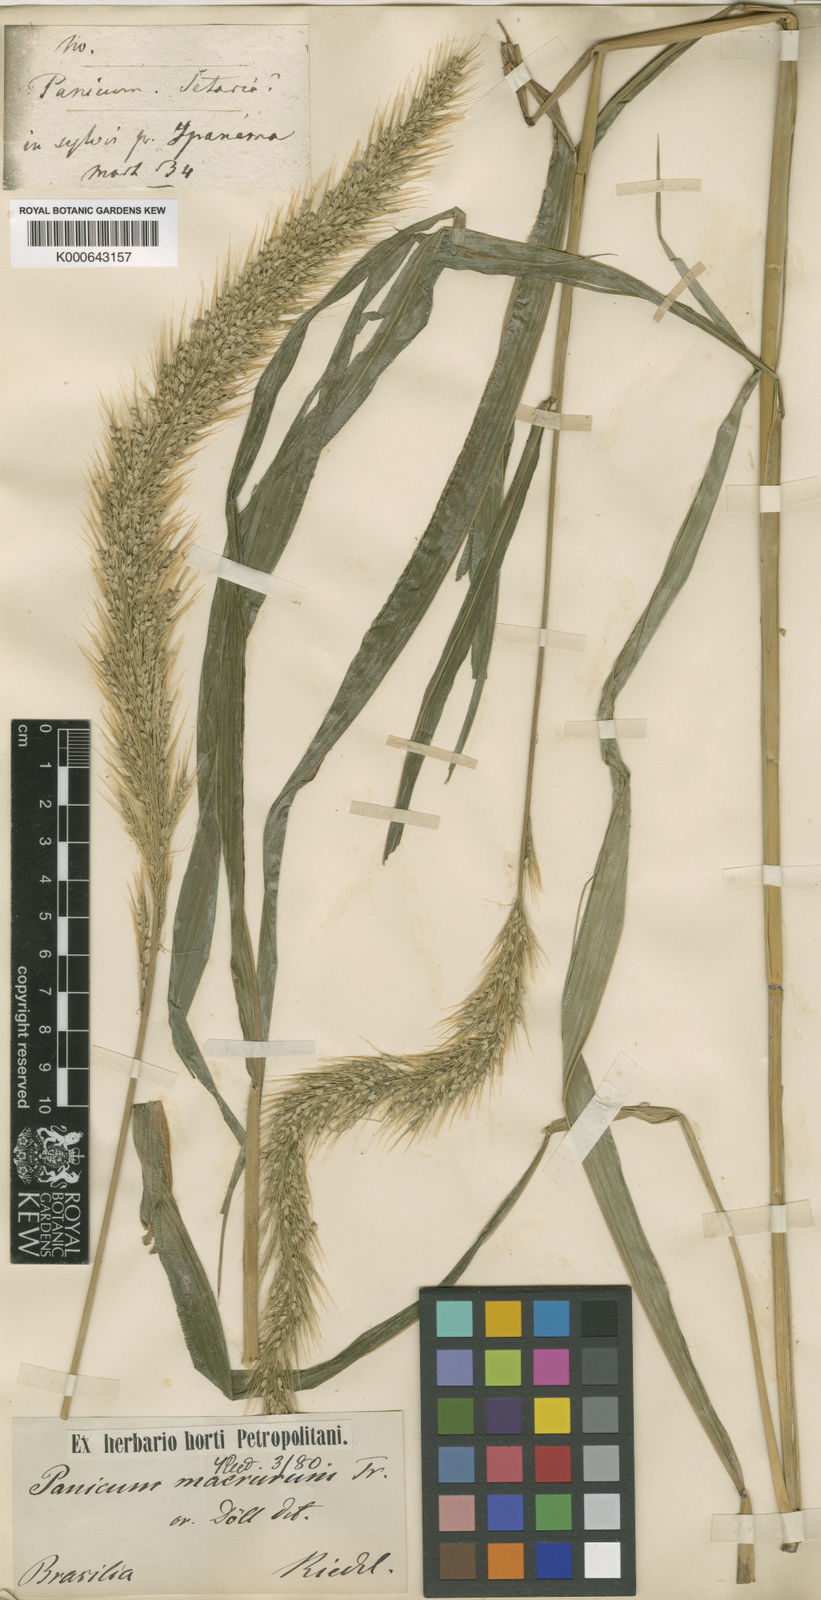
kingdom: Plantae
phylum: Tracheophyta
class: Liliopsida
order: Poales
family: Poaceae
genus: Setaria
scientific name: Setaria vulpiseta
